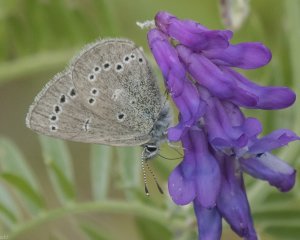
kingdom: Animalia
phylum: Arthropoda
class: Insecta
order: Lepidoptera
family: Lycaenidae
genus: Glaucopsyche
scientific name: Glaucopsyche lygdamus
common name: Silvery Blue
